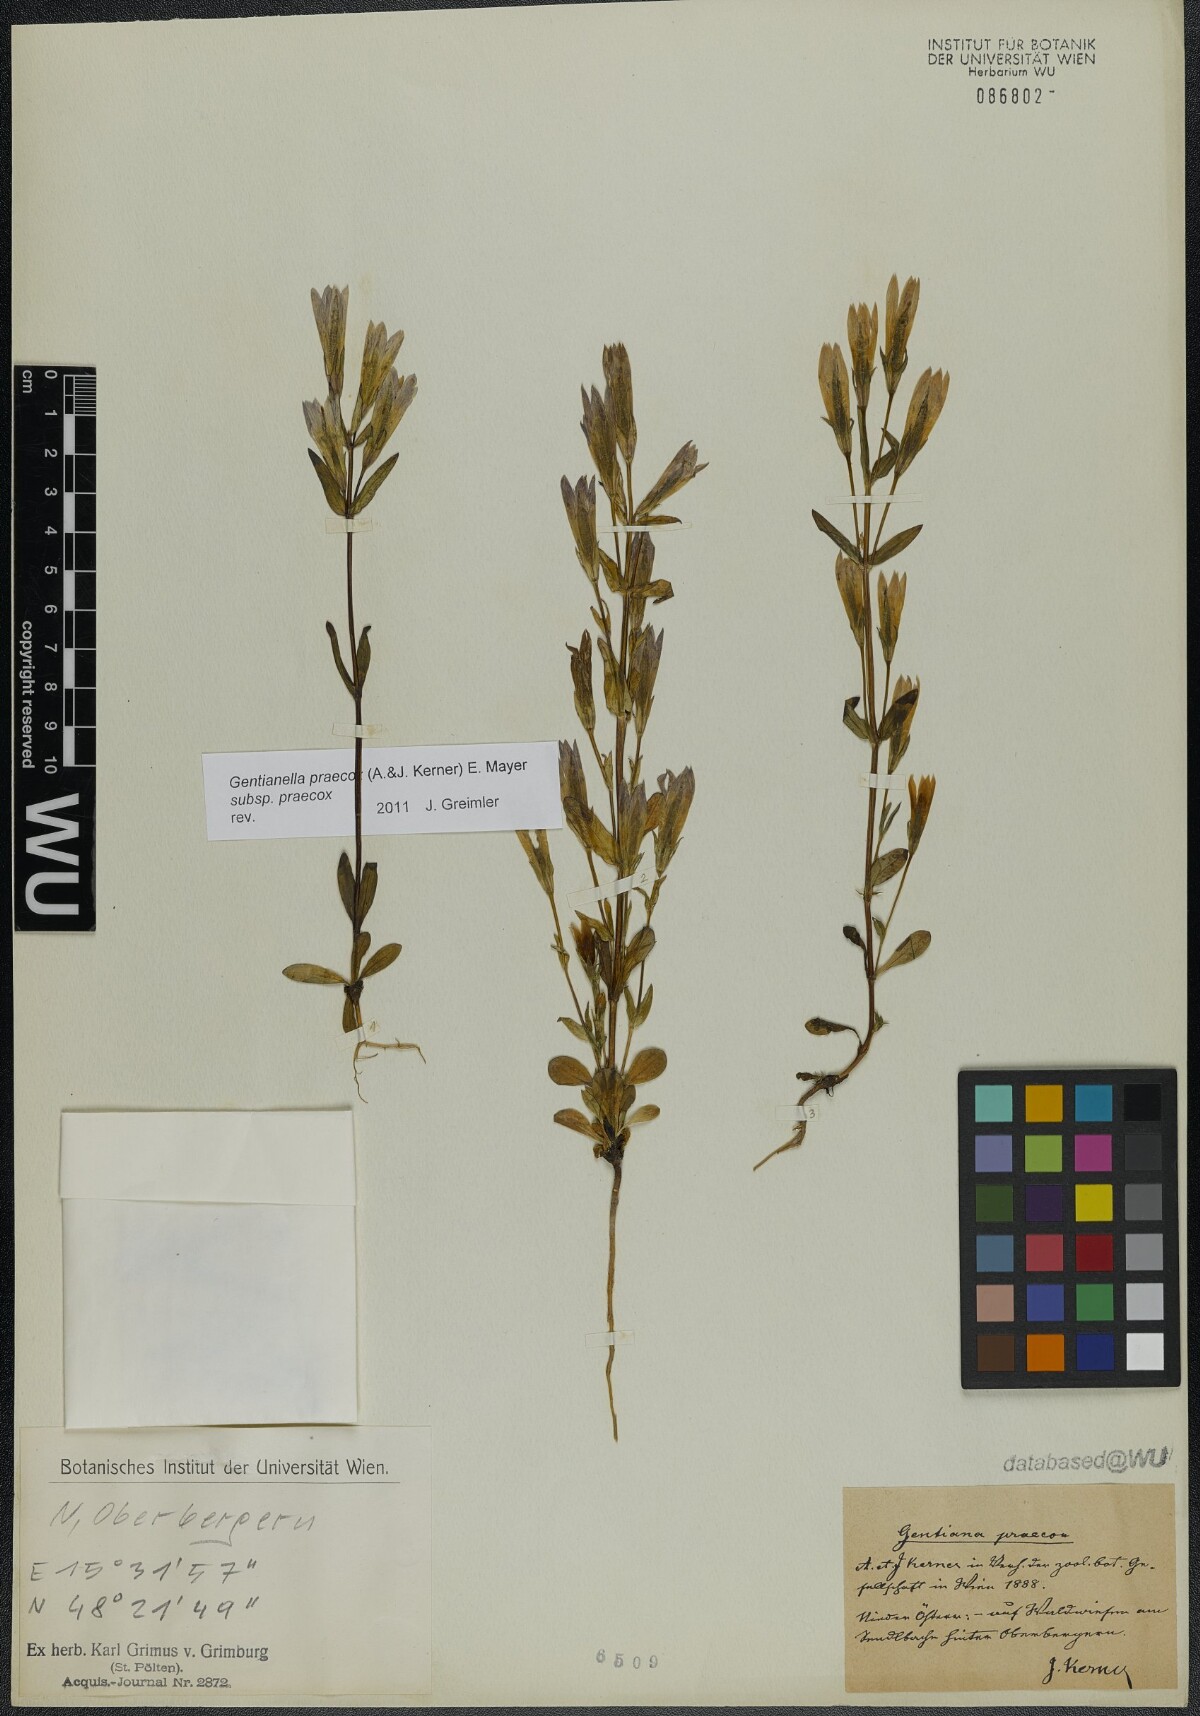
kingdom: Plantae
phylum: Tracheophyta
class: Magnoliopsida
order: Gentianales
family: Gentianaceae
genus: Gentianella
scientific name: Gentianella praecox
